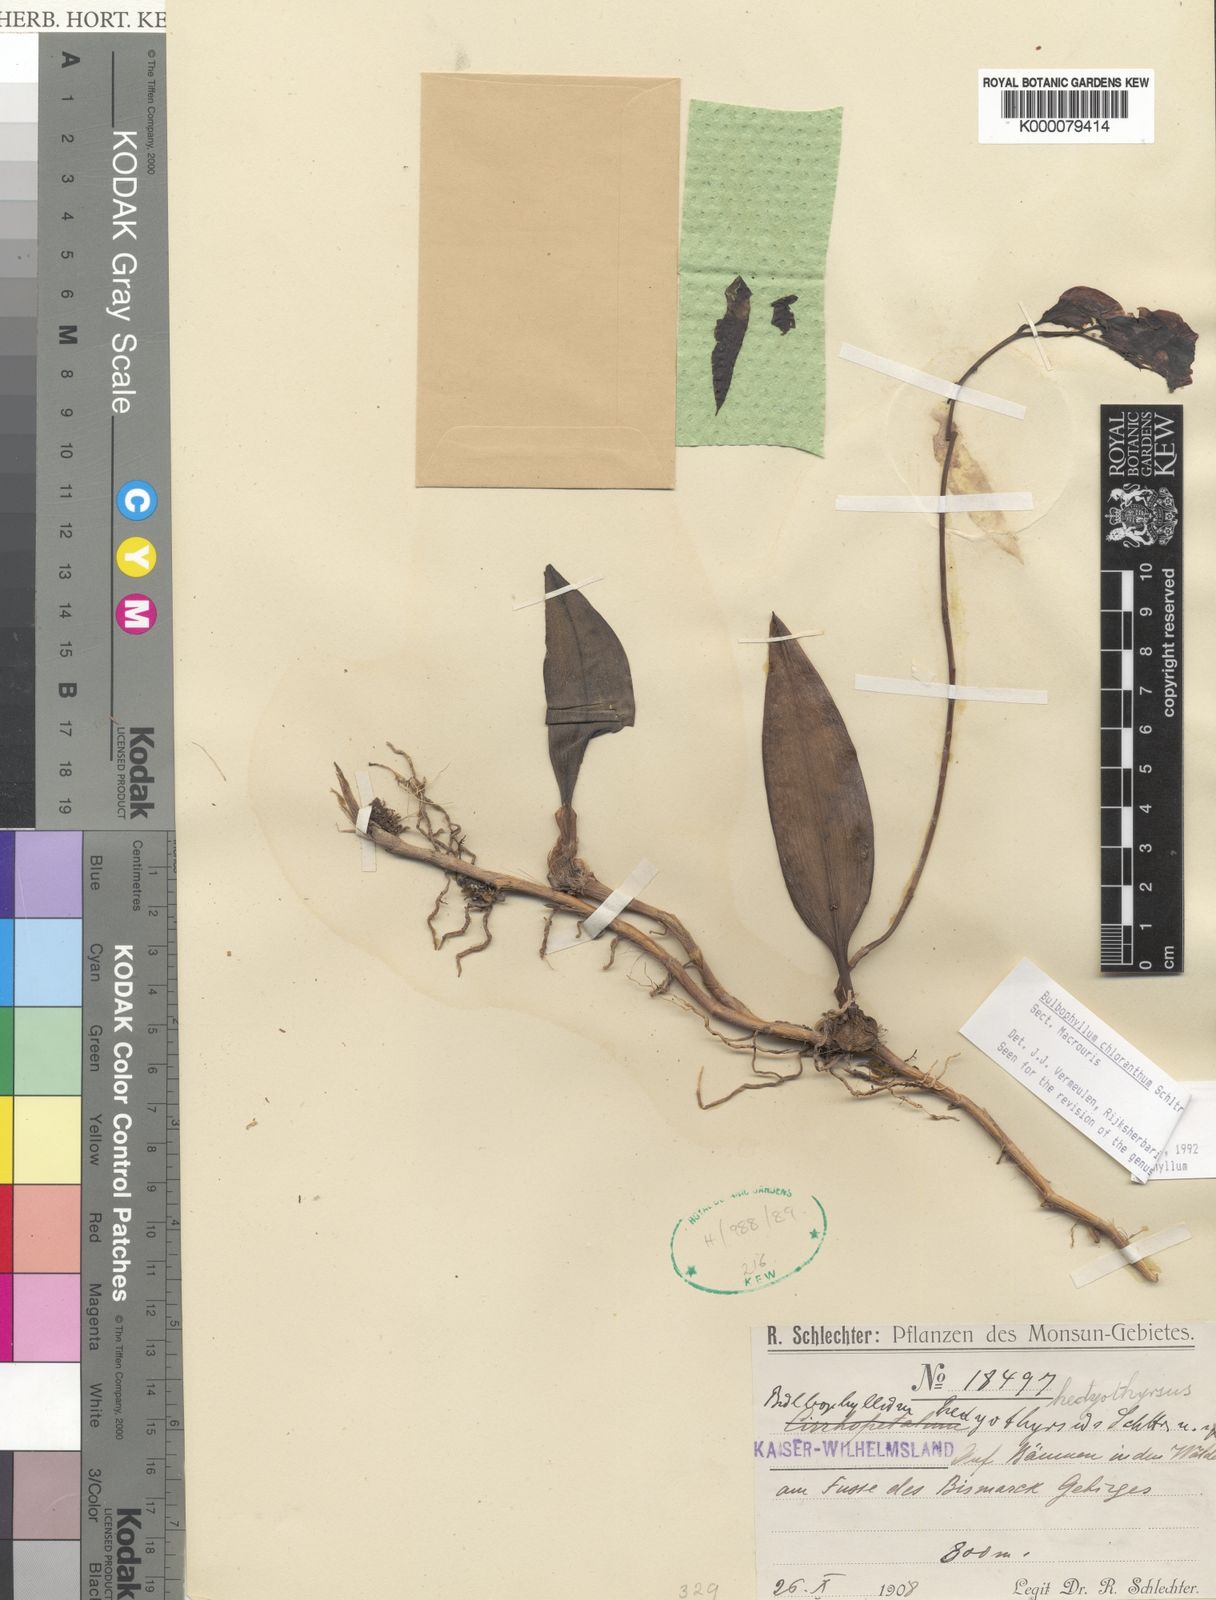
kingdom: Plantae
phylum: Tracheophyta
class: Liliopsida
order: Asparagales
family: Orchidaceae
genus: Bulbophyllum
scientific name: Bulbophyllum
